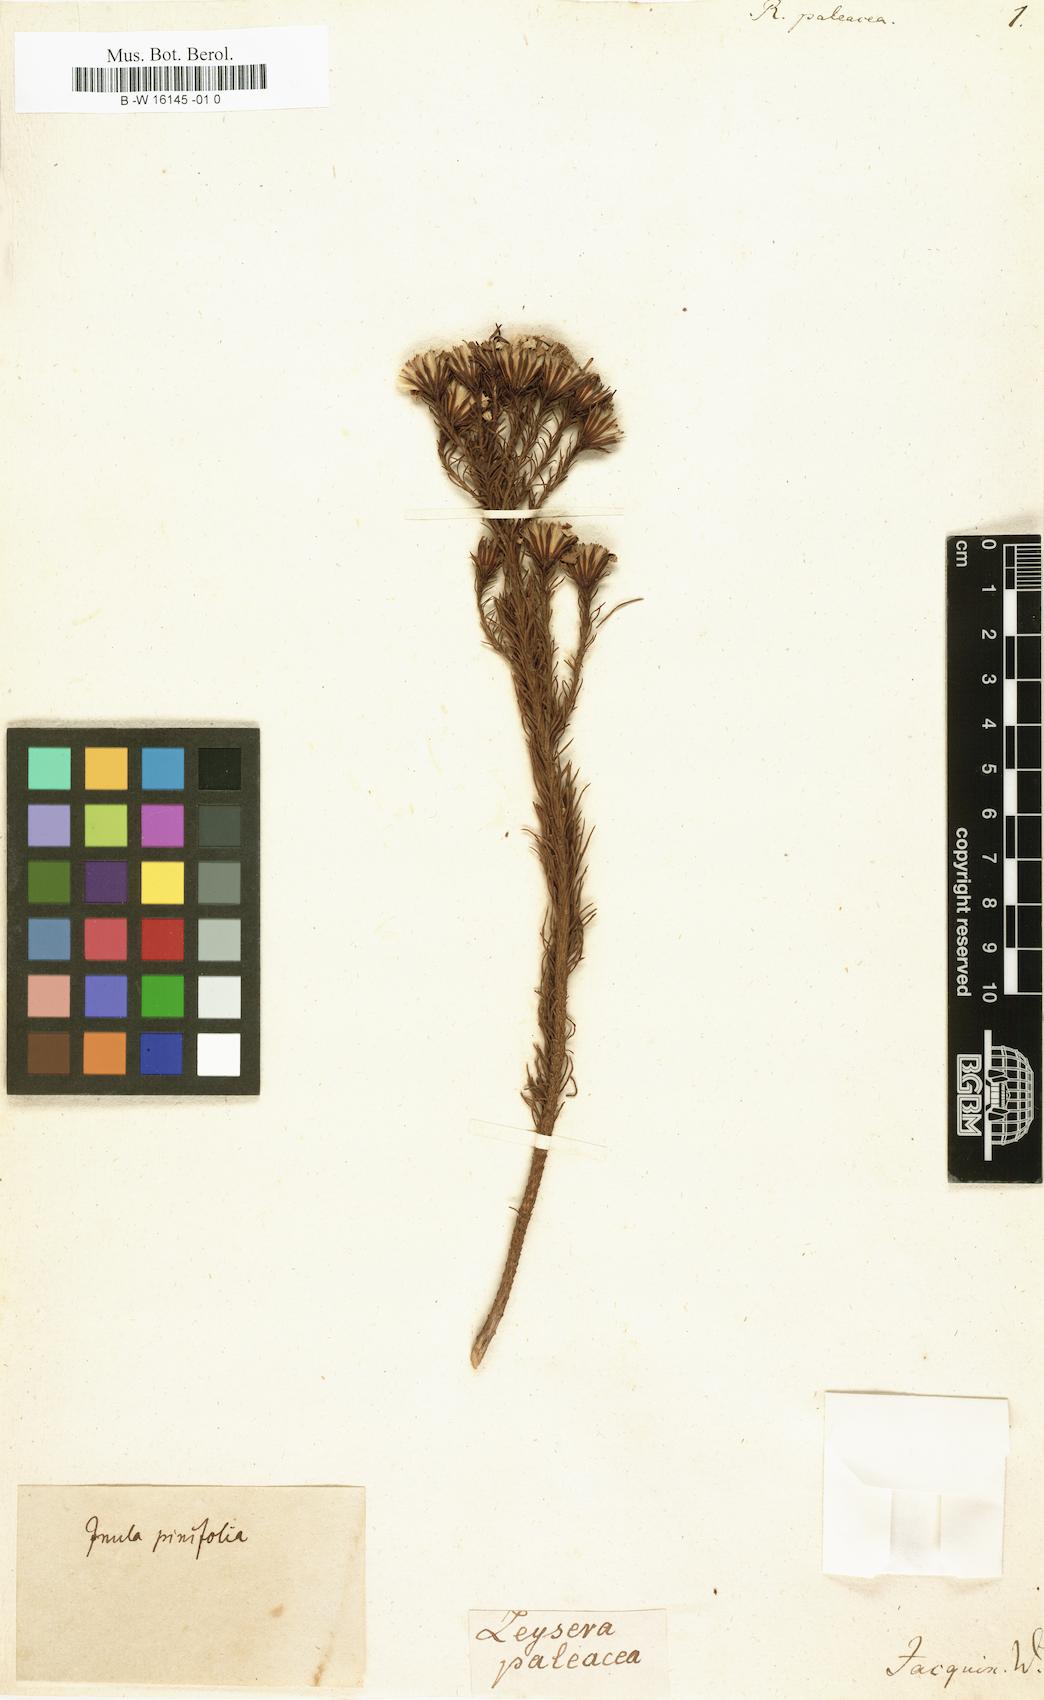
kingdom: Plantae
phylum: Tracheophyta
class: Magnoliopsida
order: Asterales
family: Asteraceae
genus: Oedera
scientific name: Oedera fruticosa
